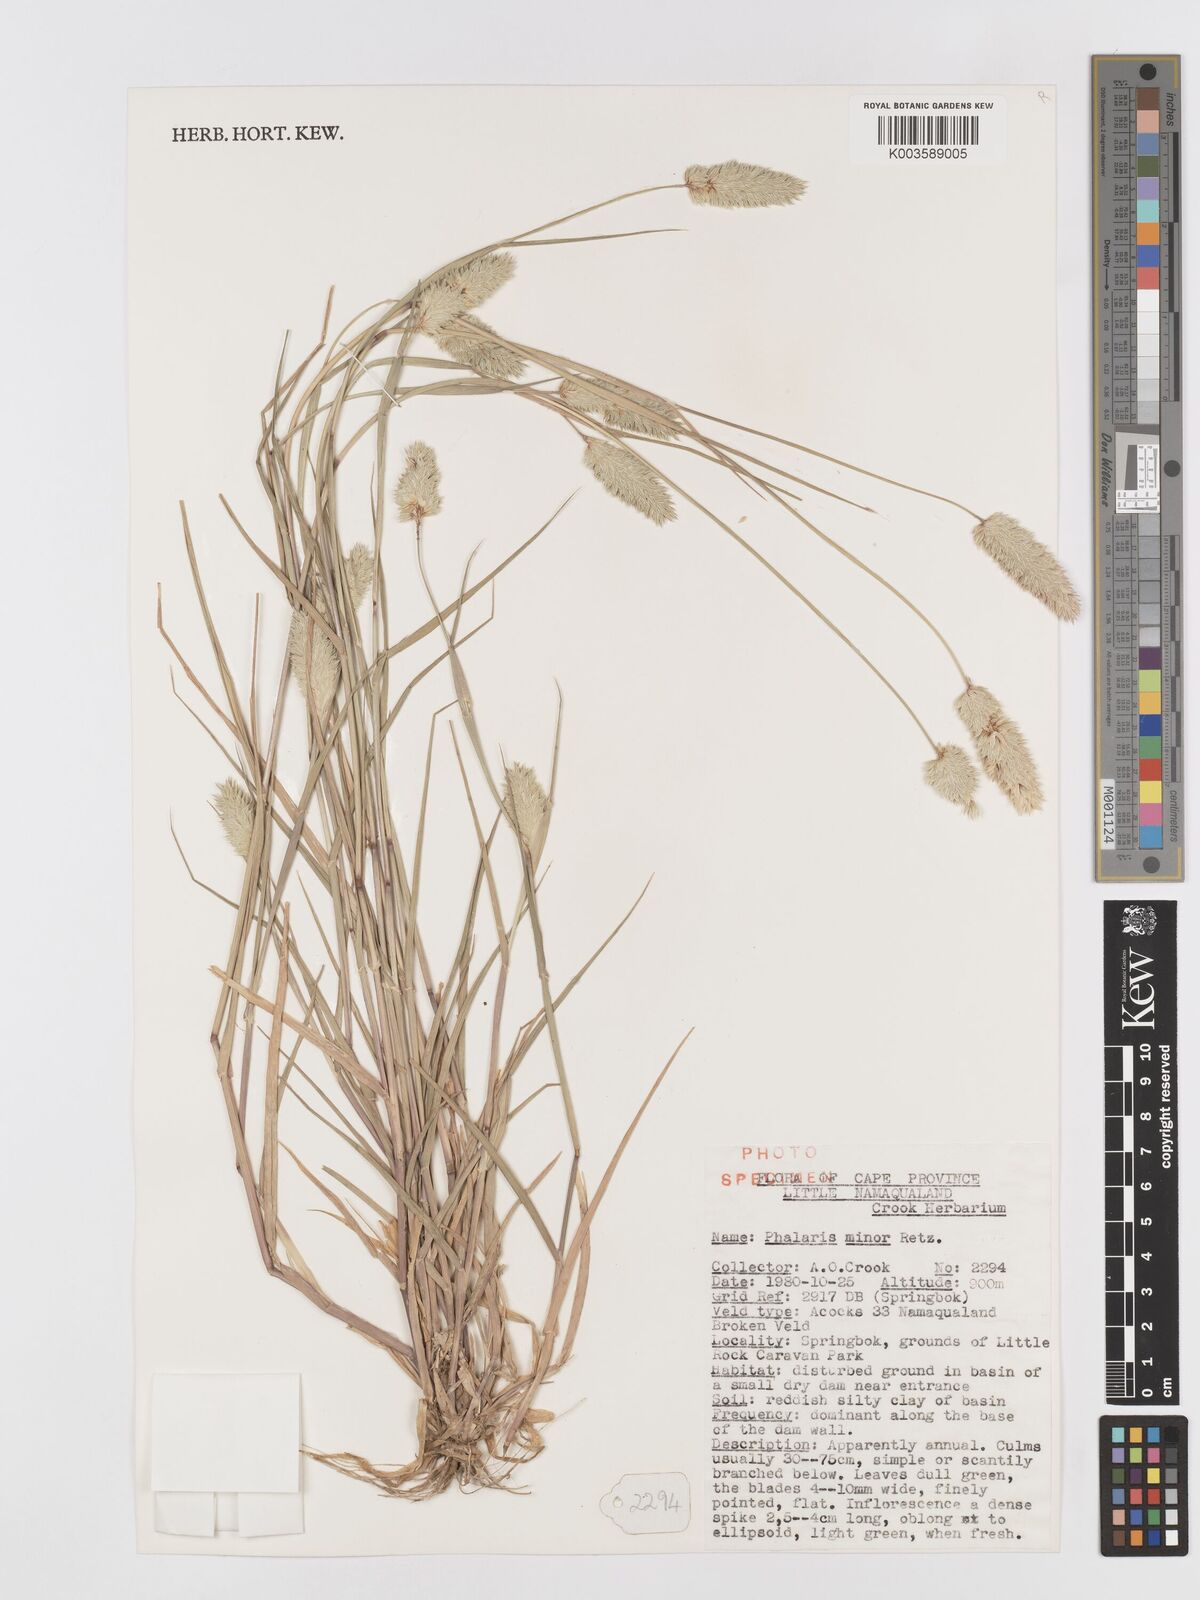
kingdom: Plantae
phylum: Tracheophyta
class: Liliopsida
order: Poales
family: Poaceae
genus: Phalaris
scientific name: Phalaris minor
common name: Littleseed canarygrass
